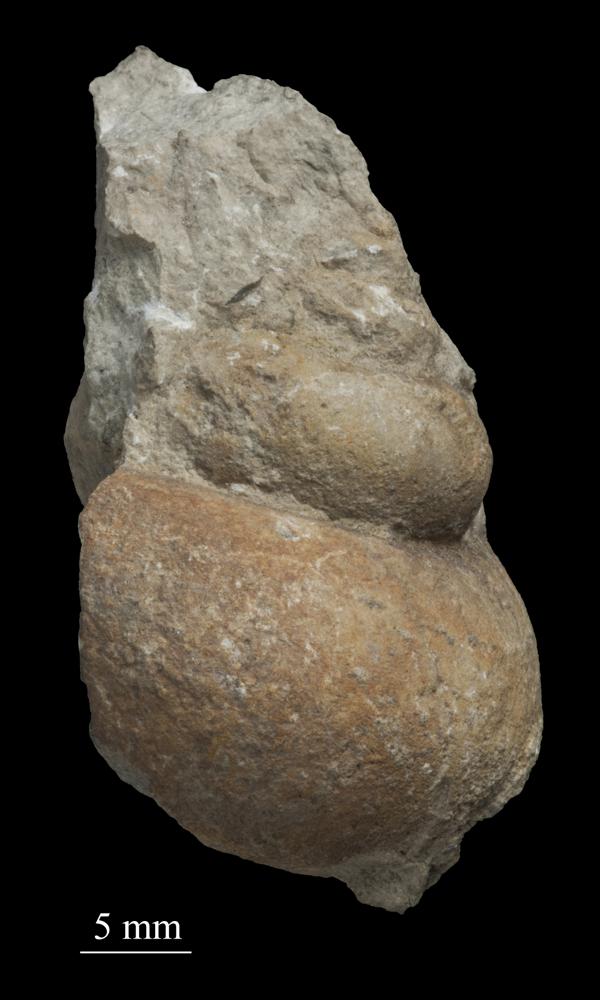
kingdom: Animalia
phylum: Mollusca
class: Gastropoda
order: Trochida
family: Turbinidae
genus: Turbo
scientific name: Turbo
